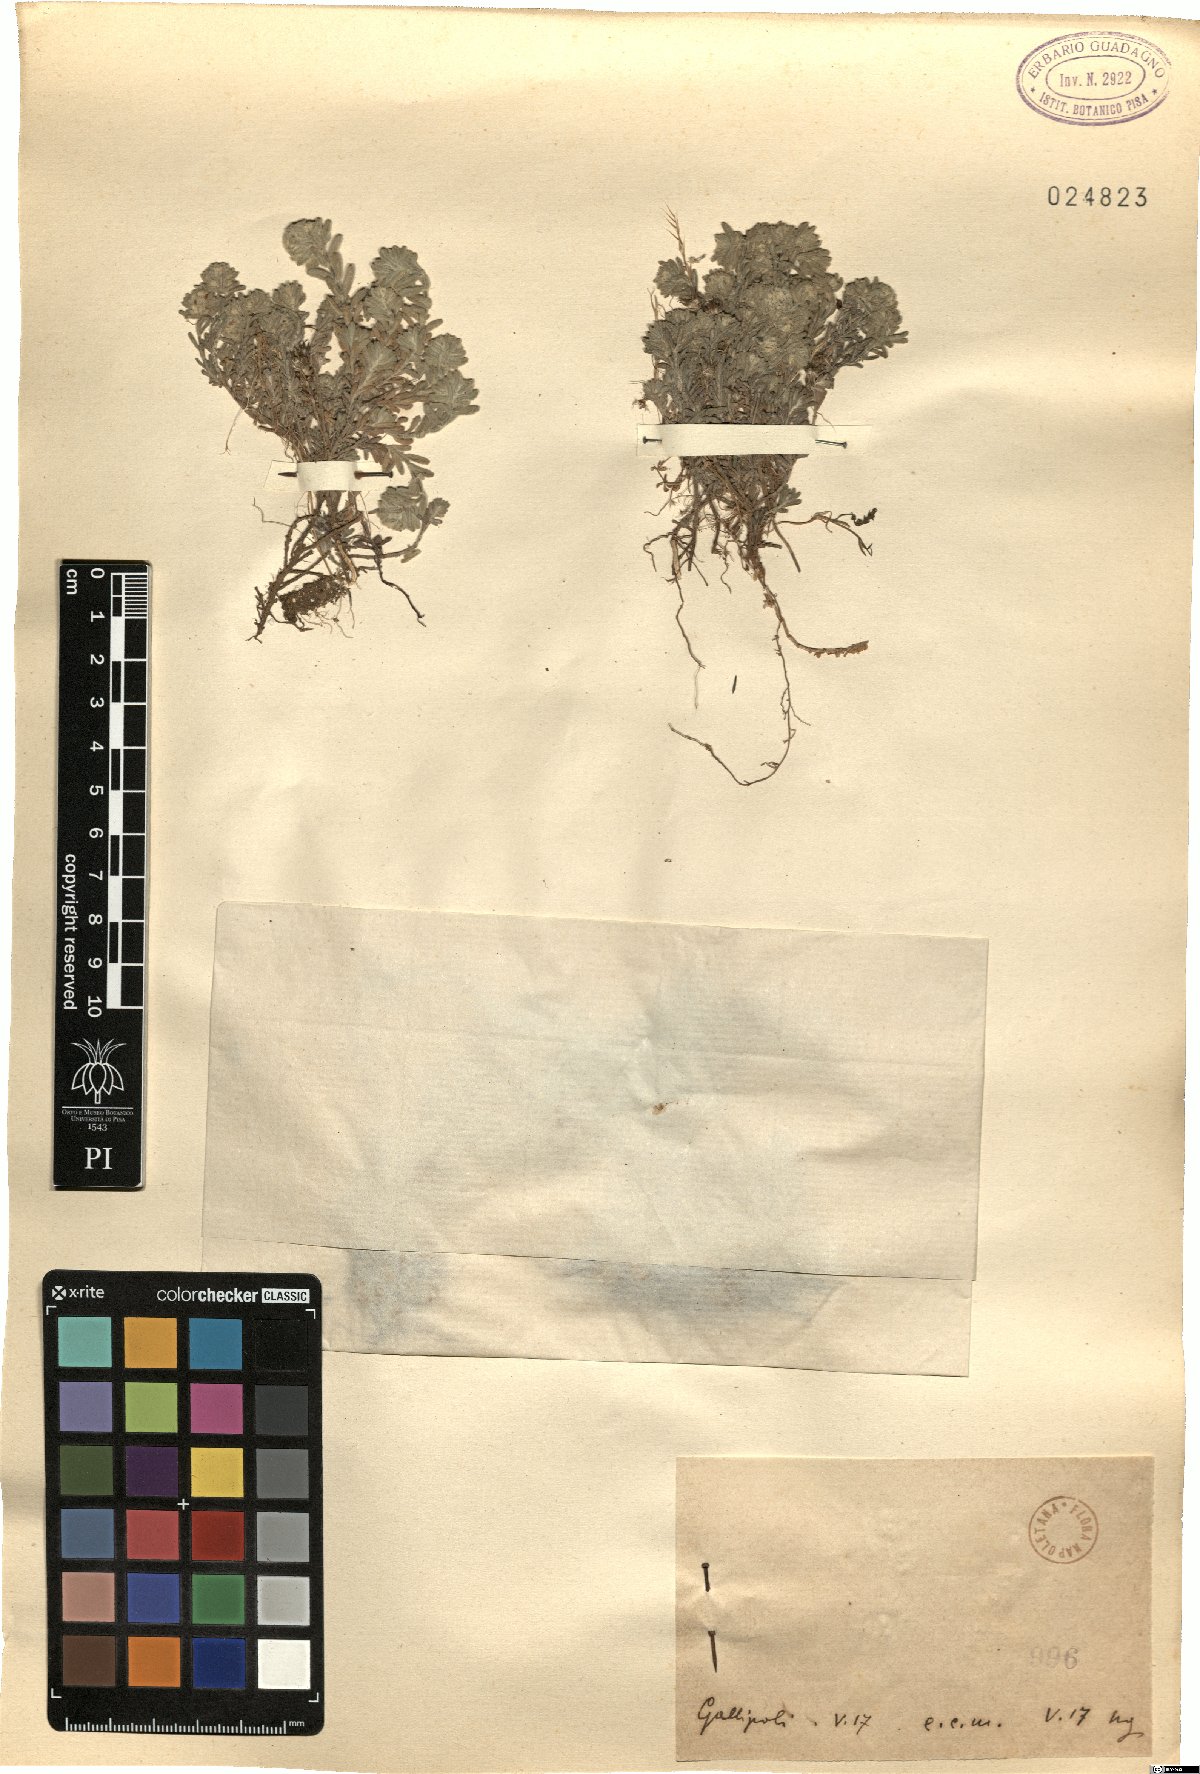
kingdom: Plantae
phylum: Tracheophyta
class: Magnoliopsida
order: Lamiales
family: Lamiaceae
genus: Teucrium
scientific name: Teucrium
